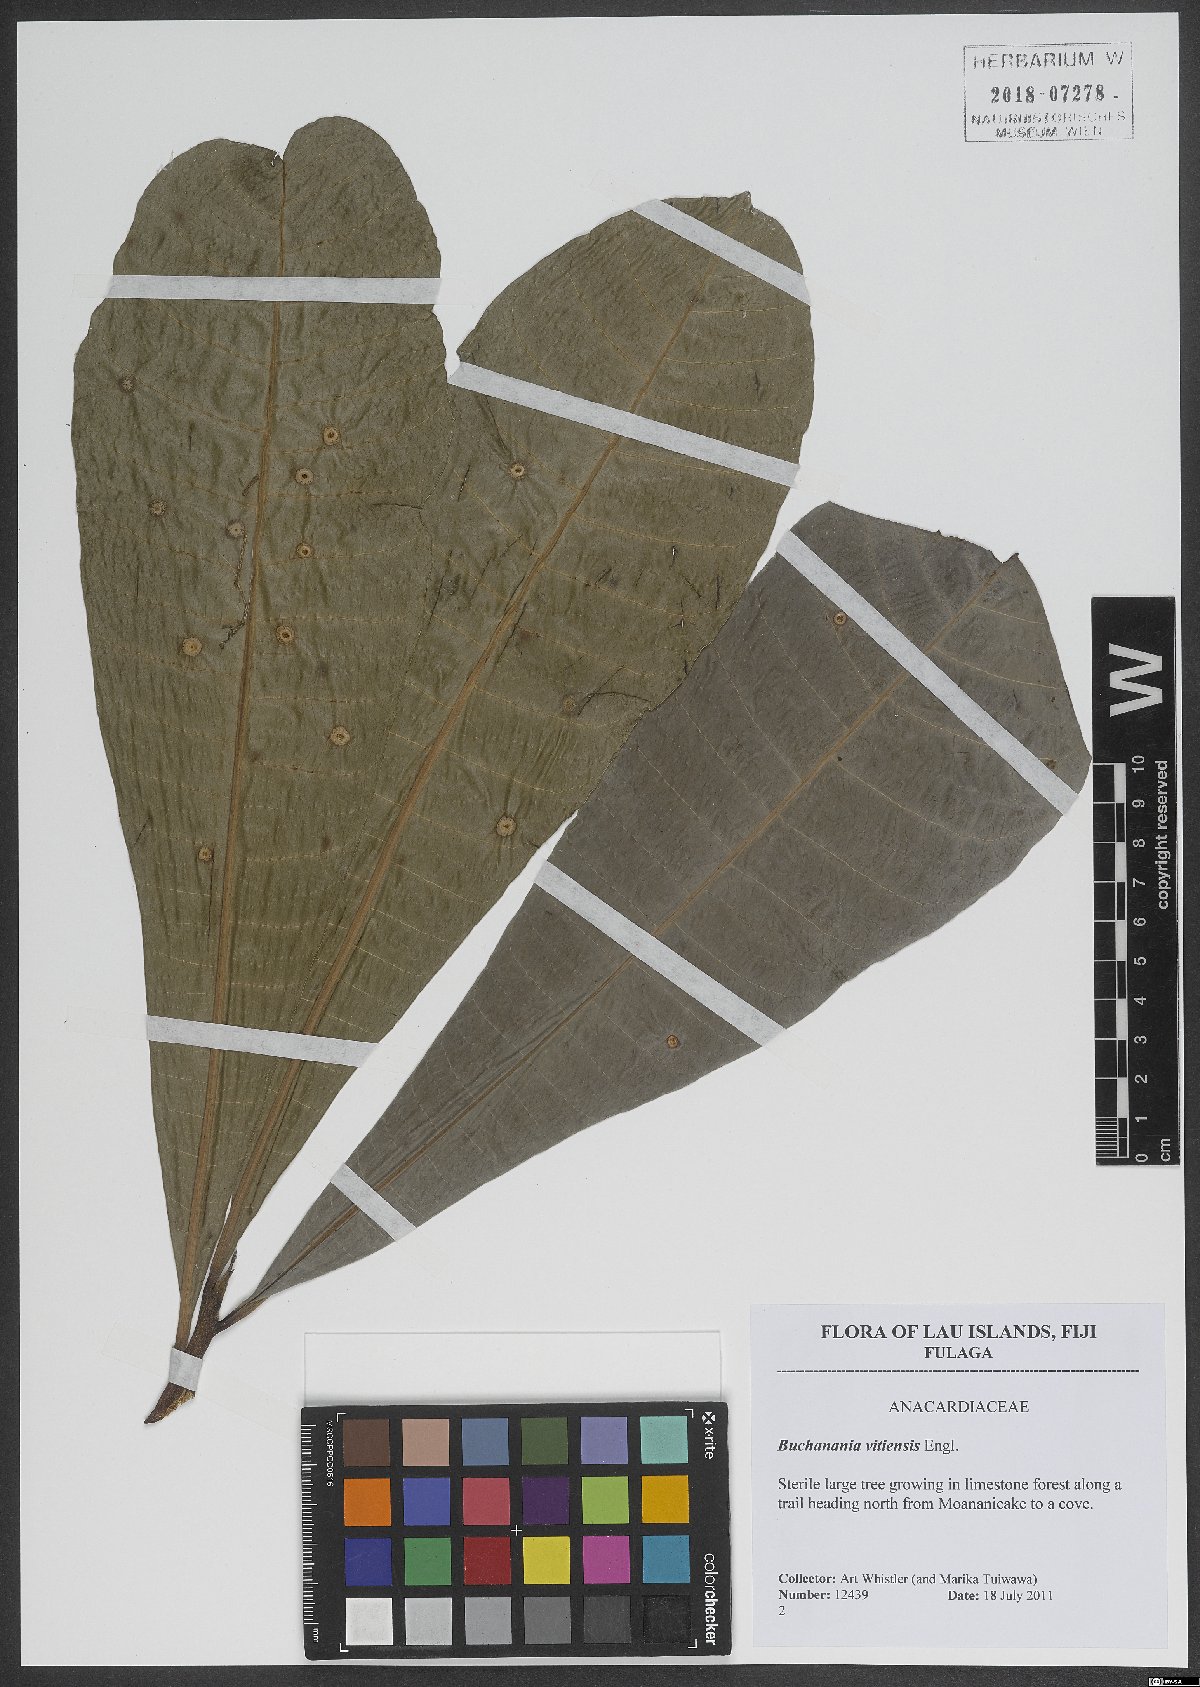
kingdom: Plantae
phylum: Tracheophyta
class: Magnoliopsida
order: Sapindales
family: Anacardiaceae
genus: Buchanania
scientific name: Buchanania vitiensis
